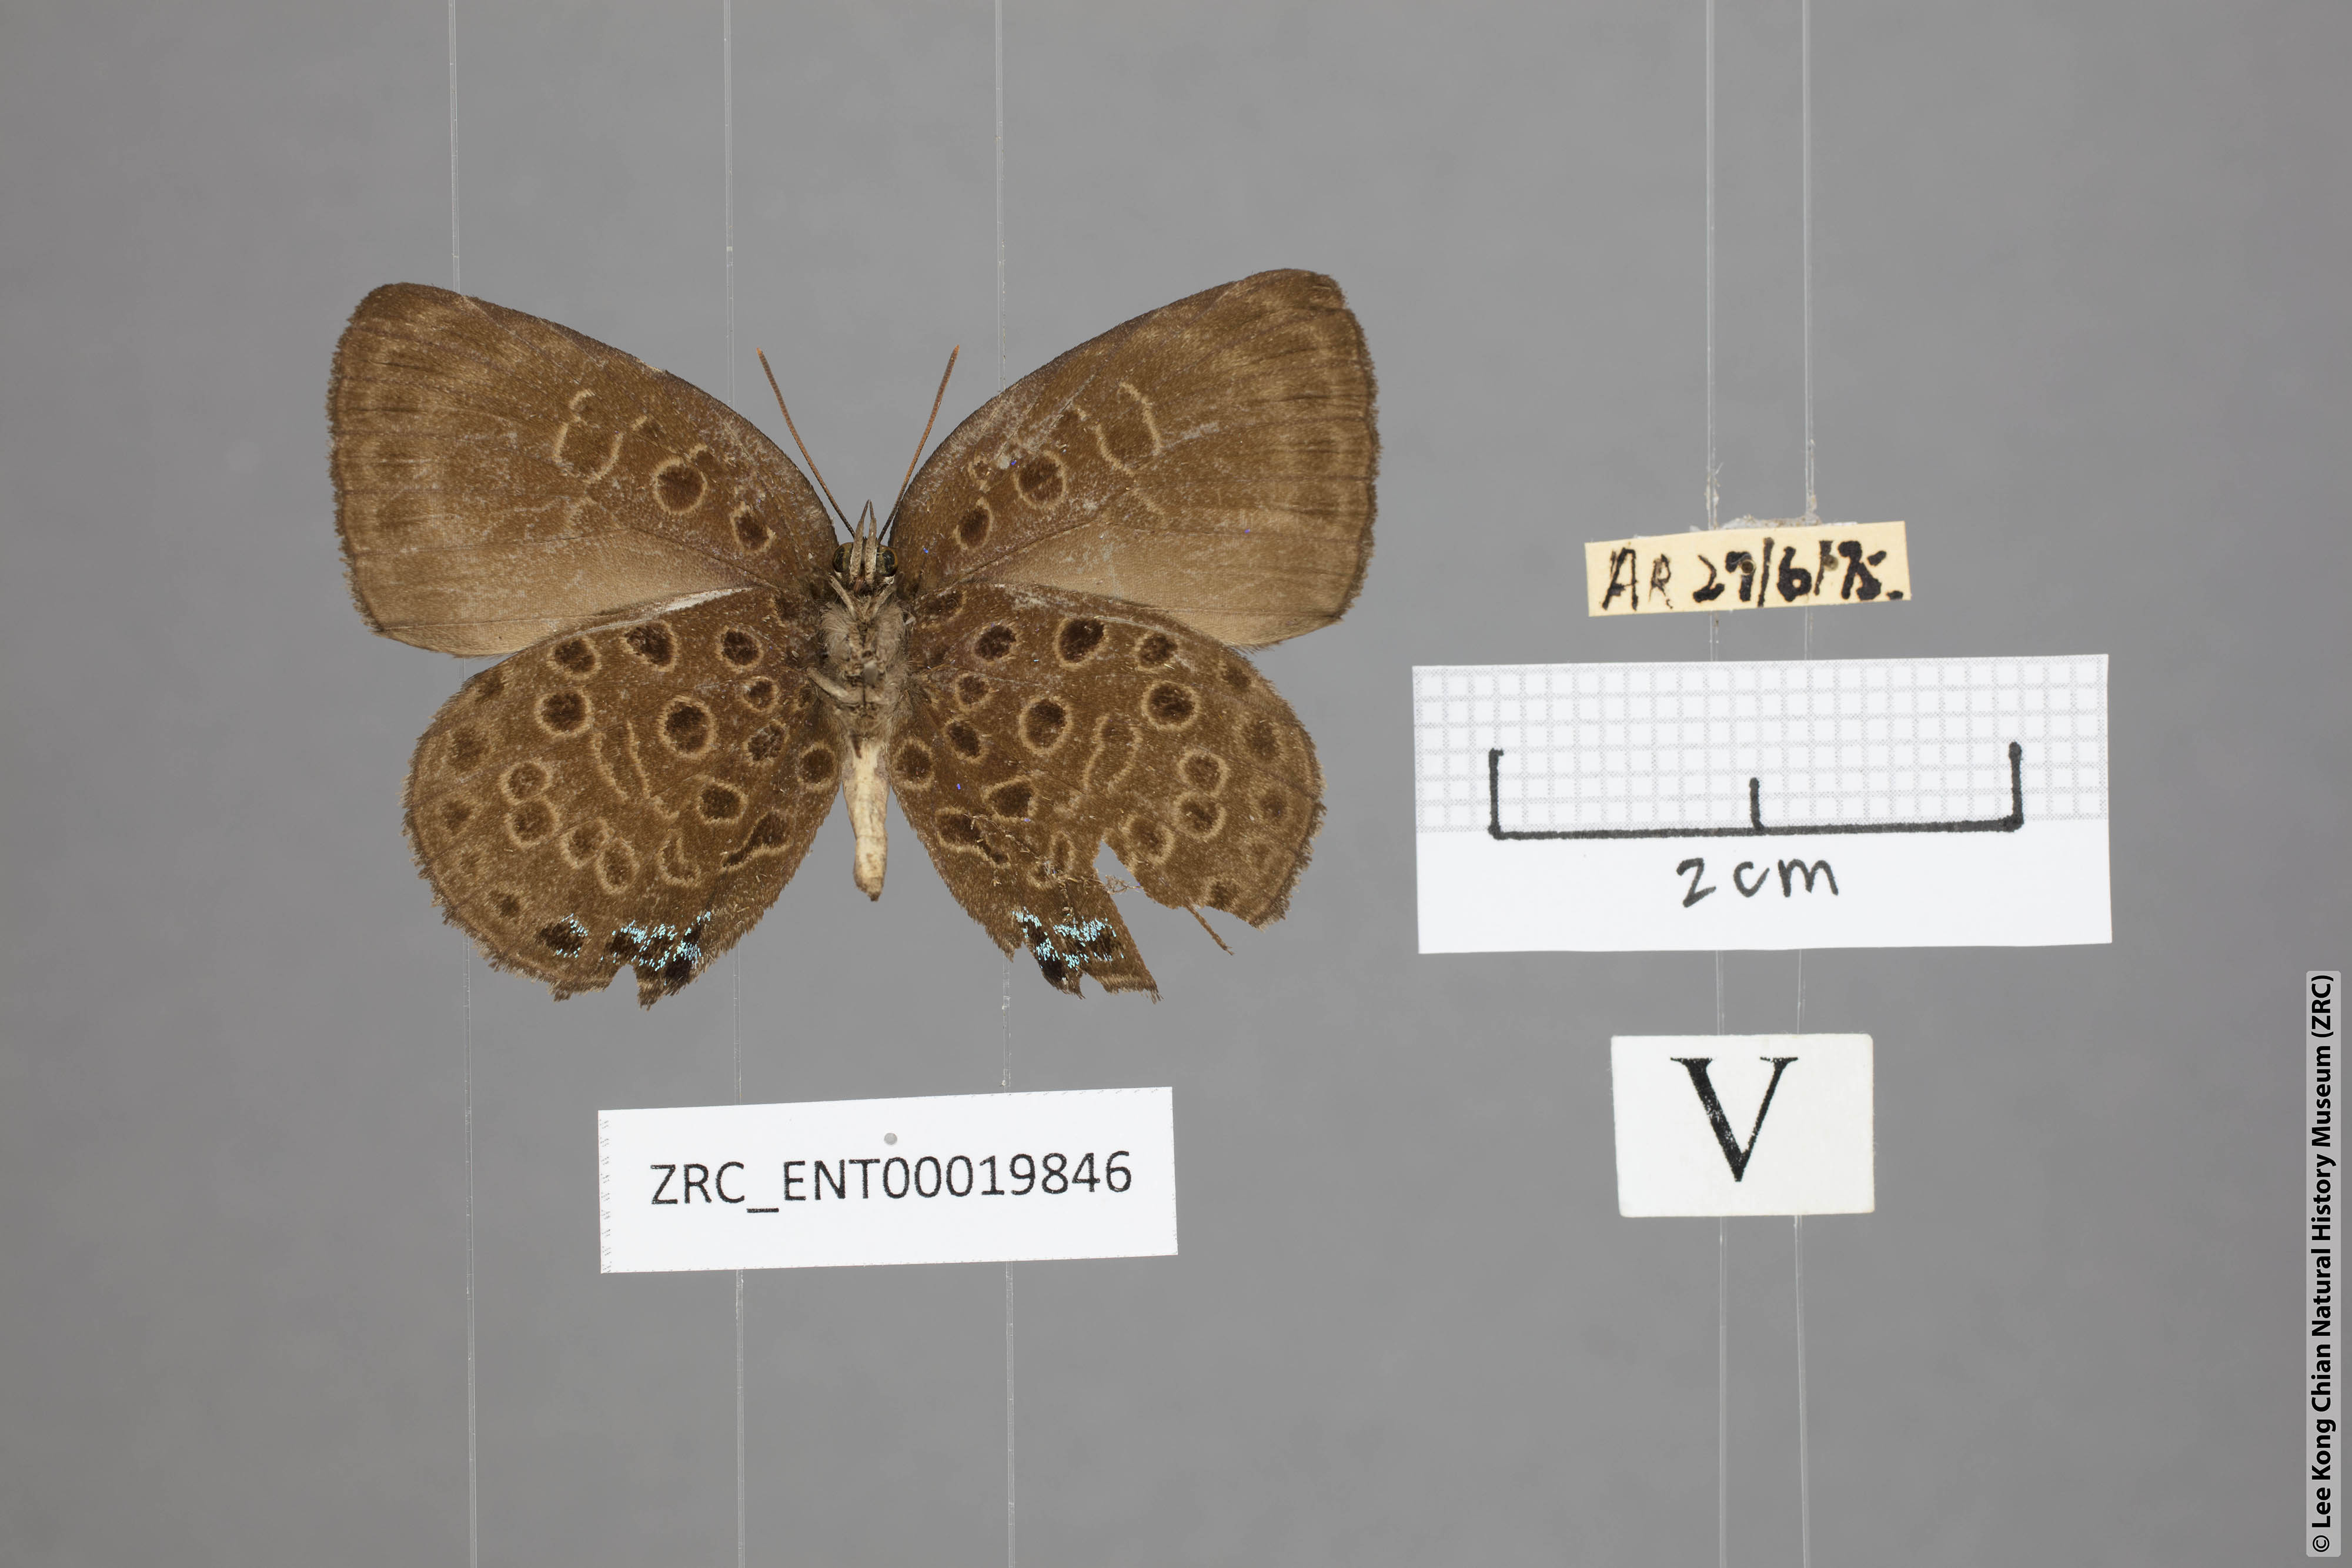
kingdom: Animalia
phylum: Arthropoda
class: Insecta
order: Lepidoptera
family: Lycaenidae
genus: Arhopala
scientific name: Arhopala similis
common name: Druce's oakblue
